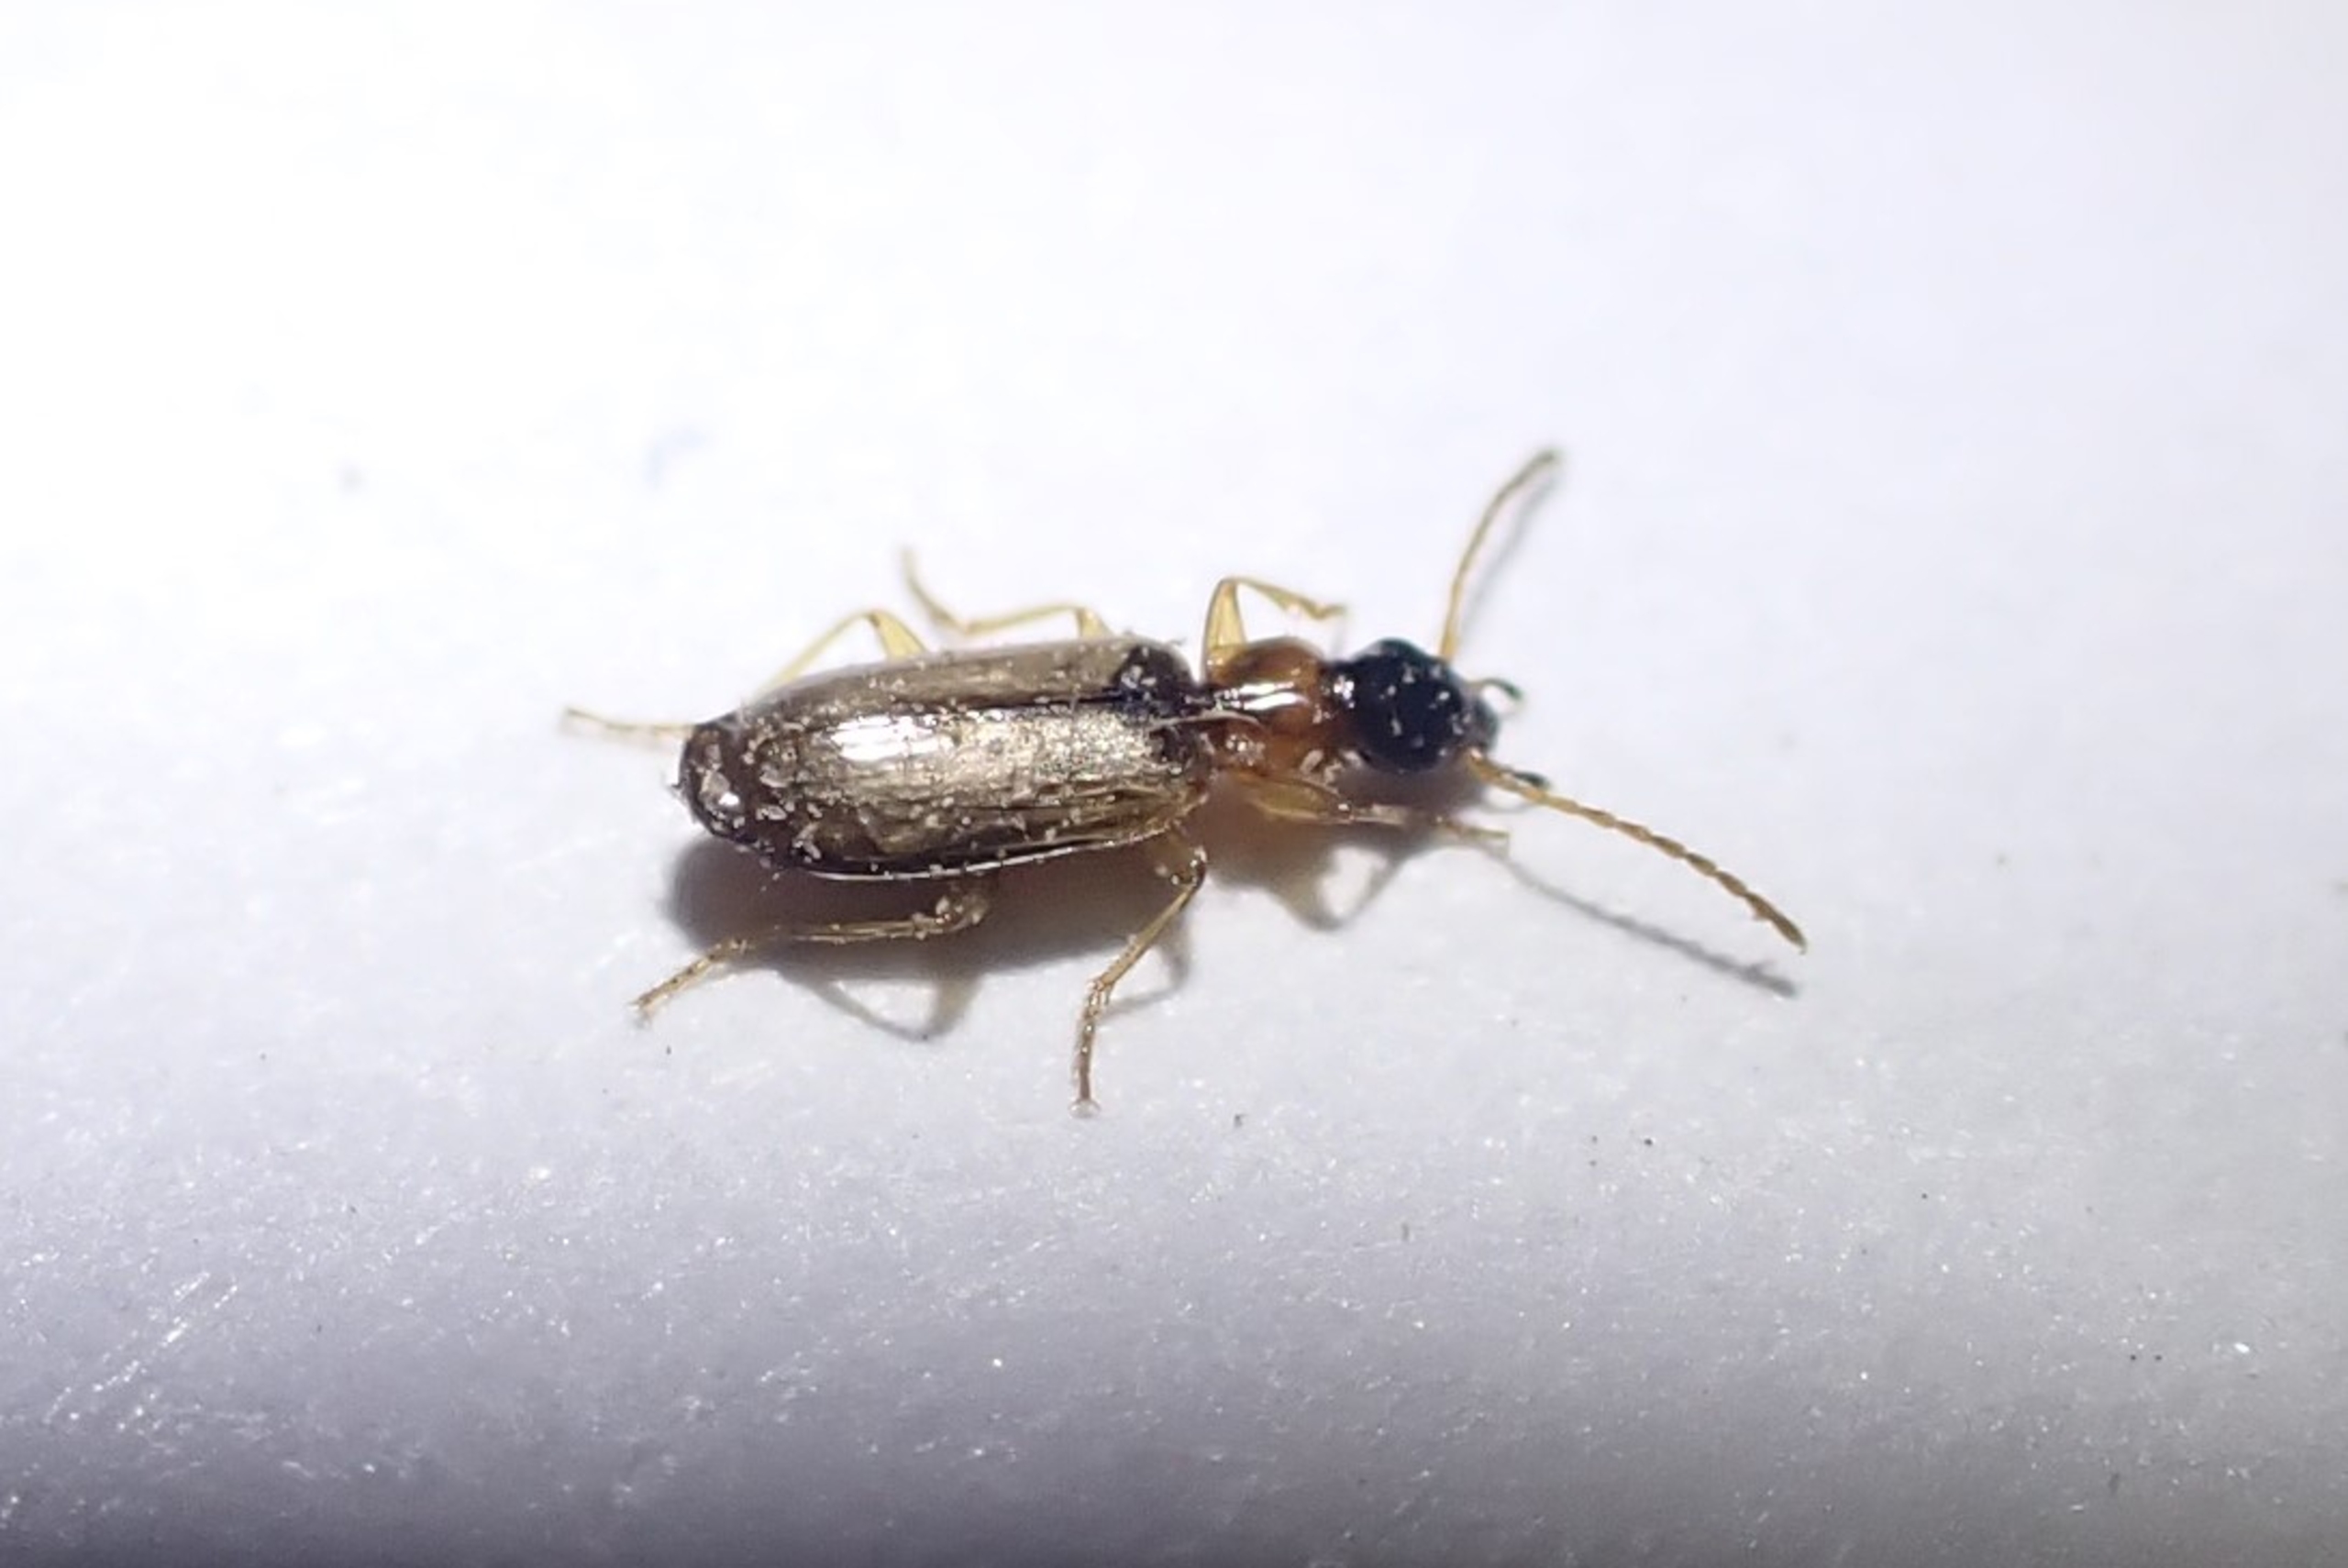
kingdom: Animalia
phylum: Arthropoda
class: Insecta
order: Coleoptera
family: Carabidae
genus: Philorhizus
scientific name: Philorhizus melanocephalus
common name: Bleggul sivløber
